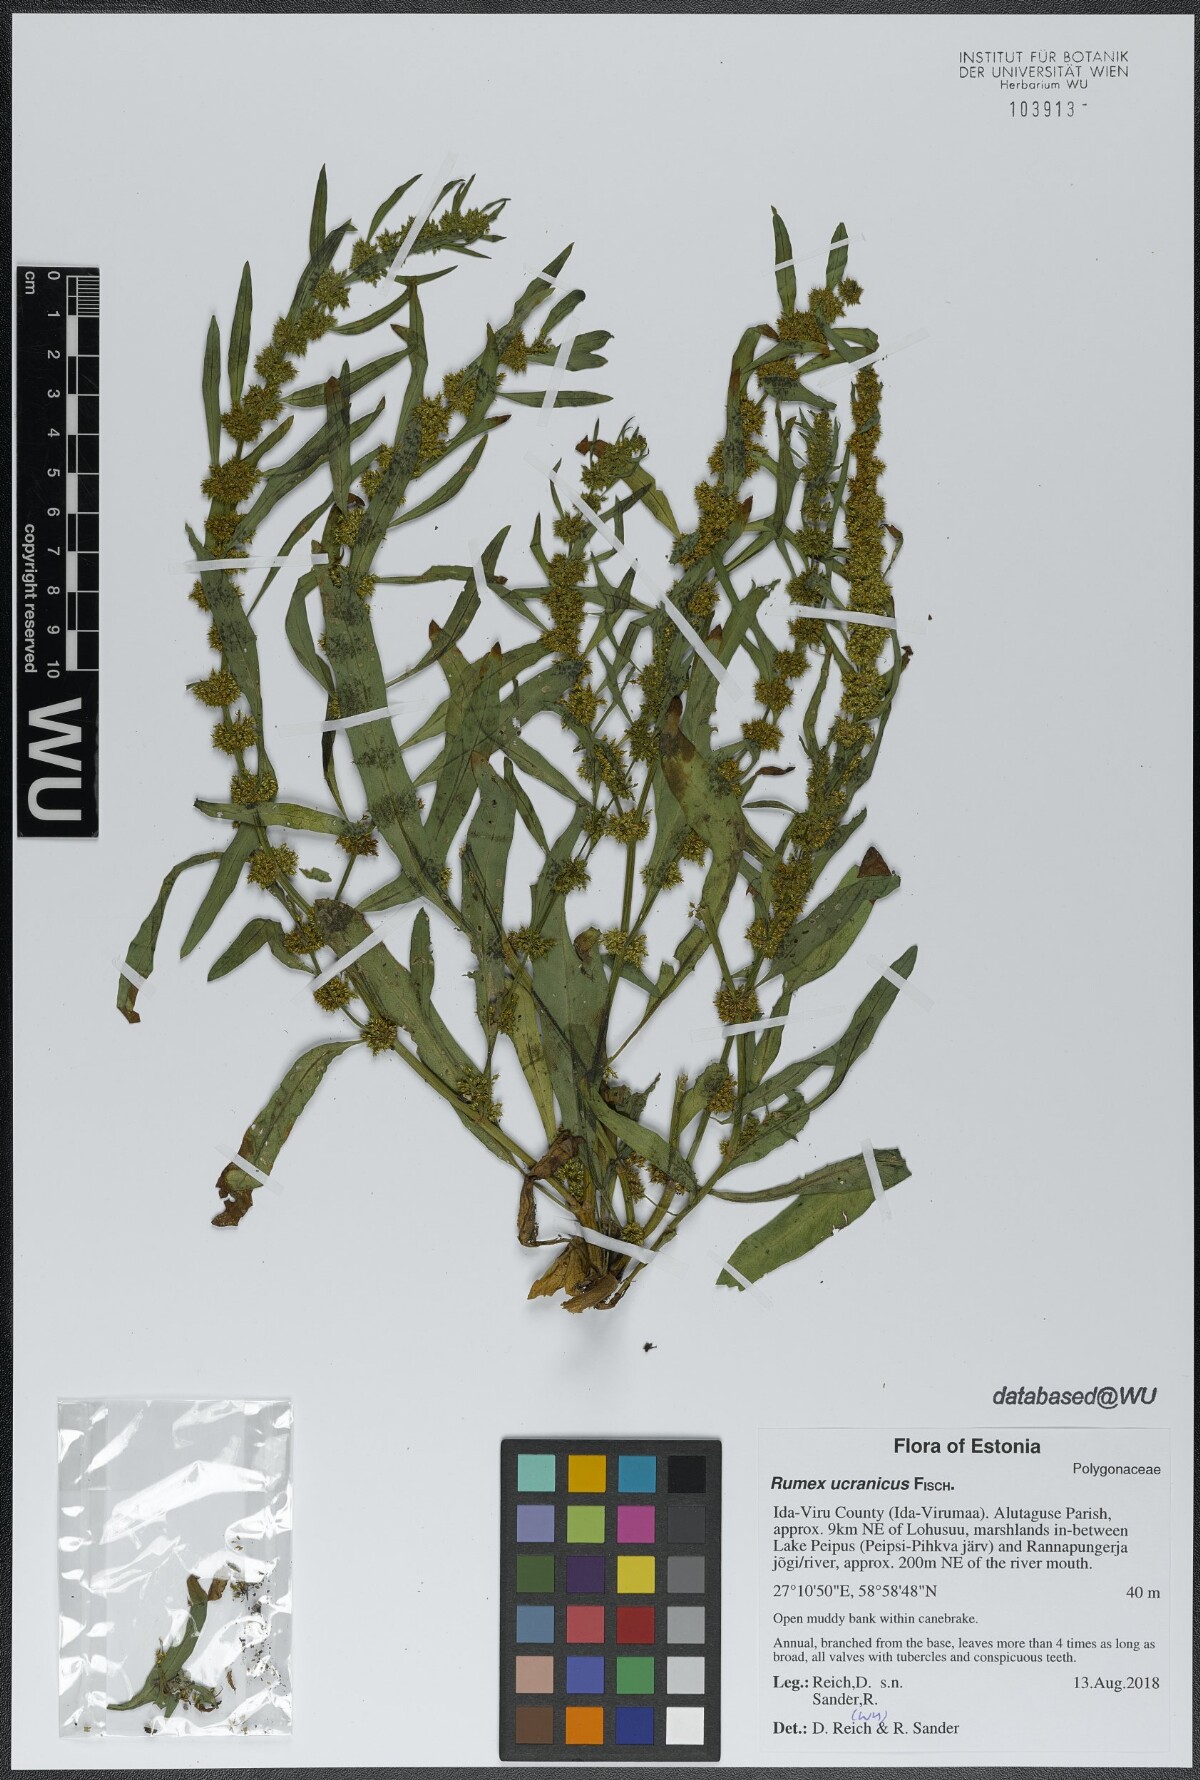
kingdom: Plantae
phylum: Tracheophyta
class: Magnoliopsida
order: Caryophyllales
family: Polygonaceae
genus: Rumex
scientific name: Rumex ucranicus
